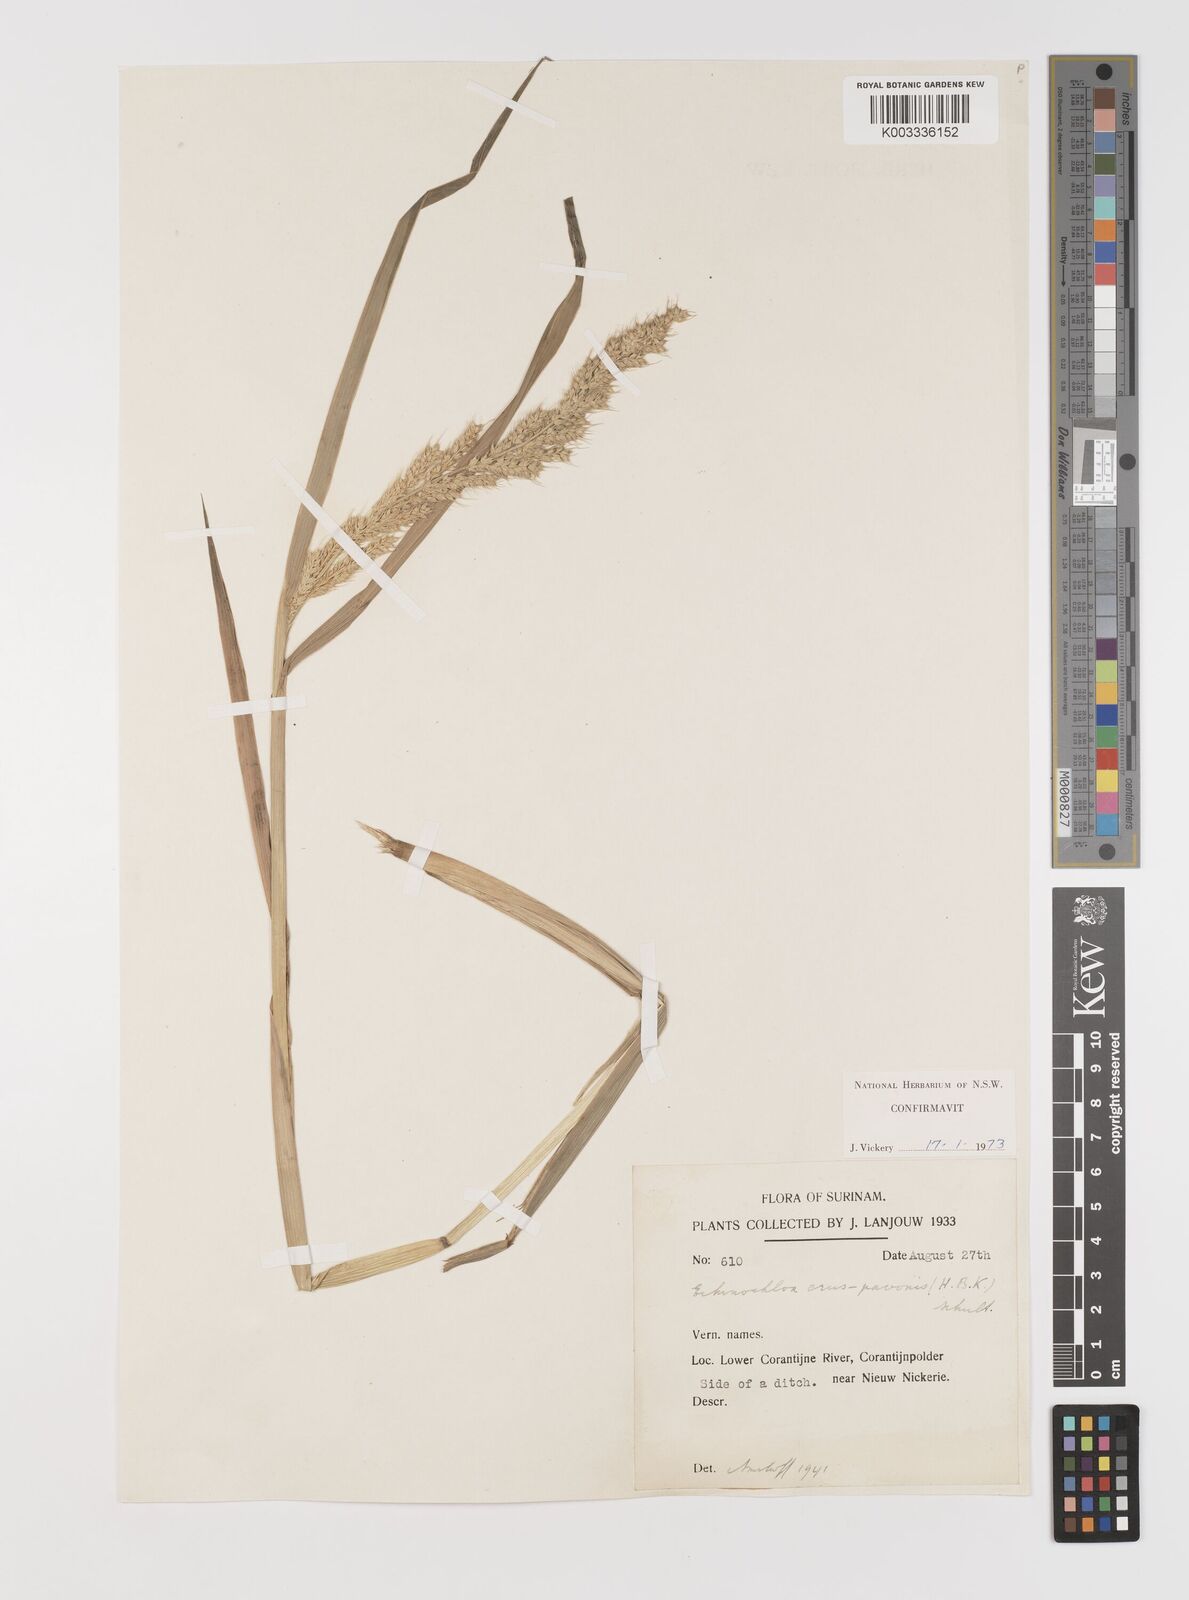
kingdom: Plantae
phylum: Tracheophyta
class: Liliopsida
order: Poales
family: Poaceae
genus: Echinochloa
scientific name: Echinochloa crus-pavonis
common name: Gulf cockspur grass
